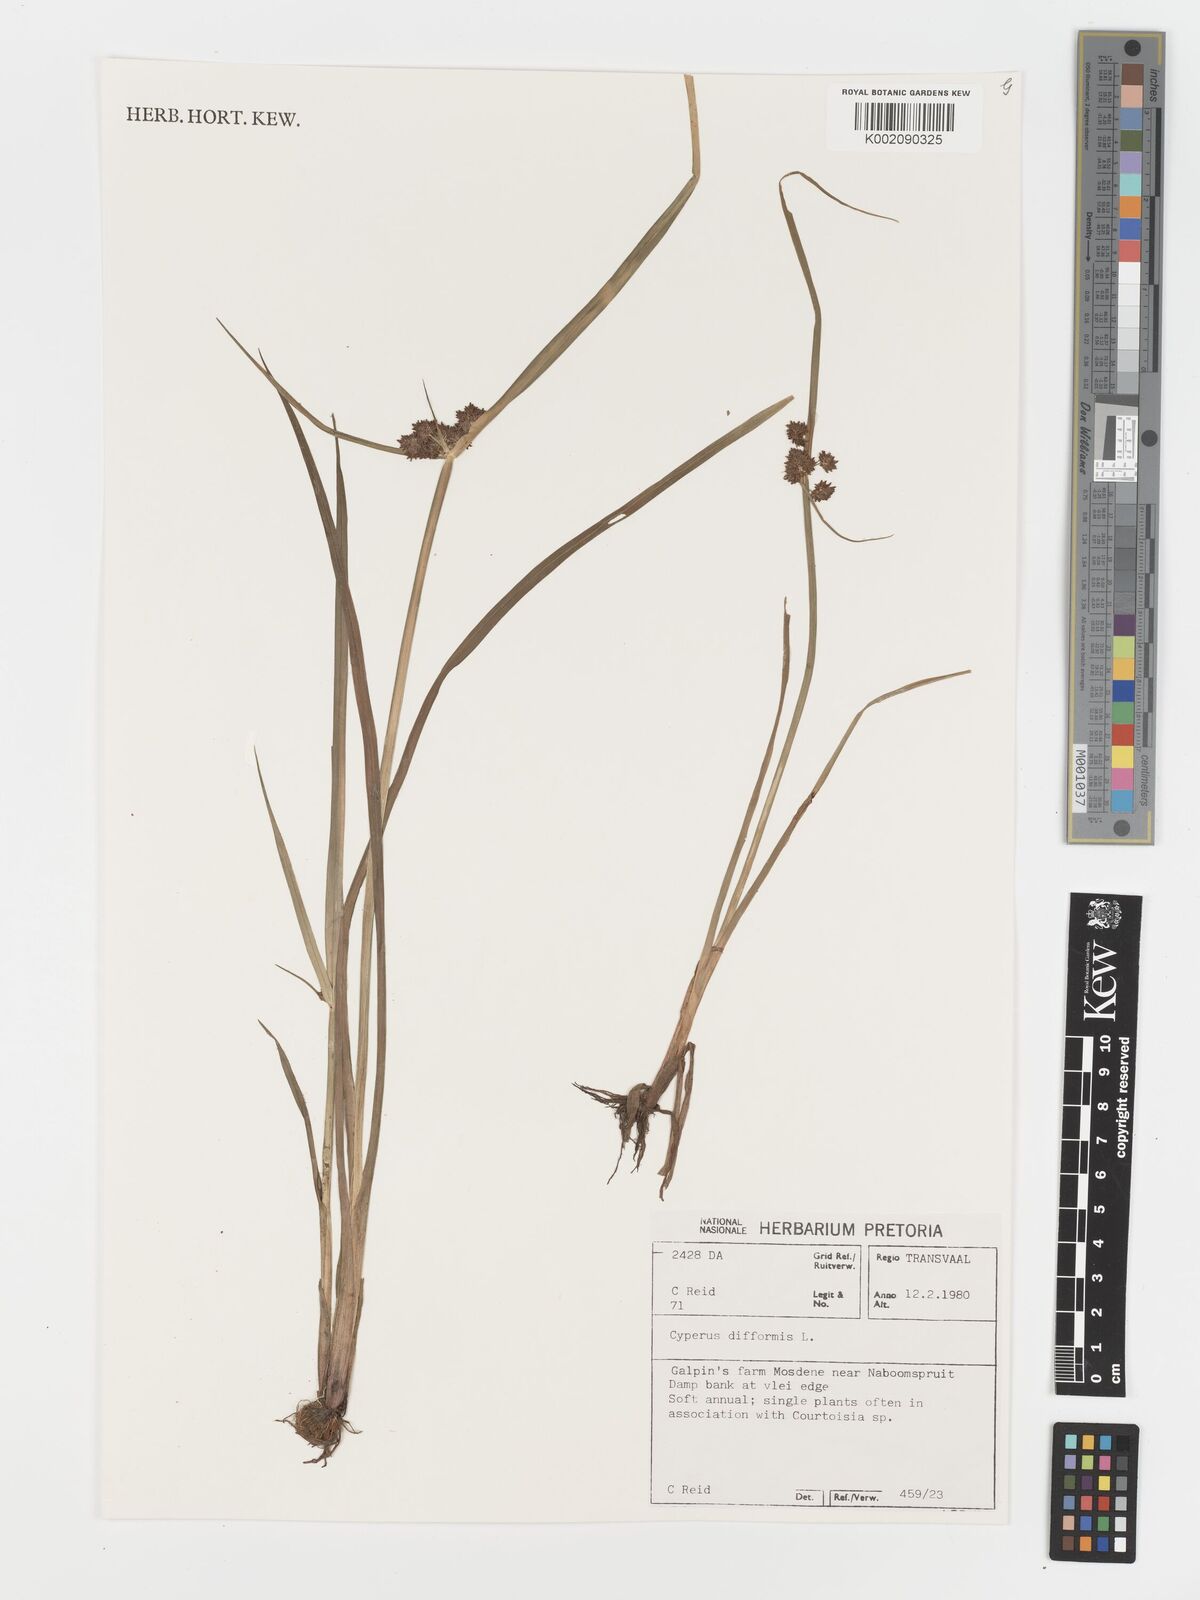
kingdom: Plantae
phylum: Tracheophyta
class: Liliopsida
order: Poales
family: Cyperaceae
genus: Cyperus
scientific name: Cyperus difformis
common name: Variable flatsedge
